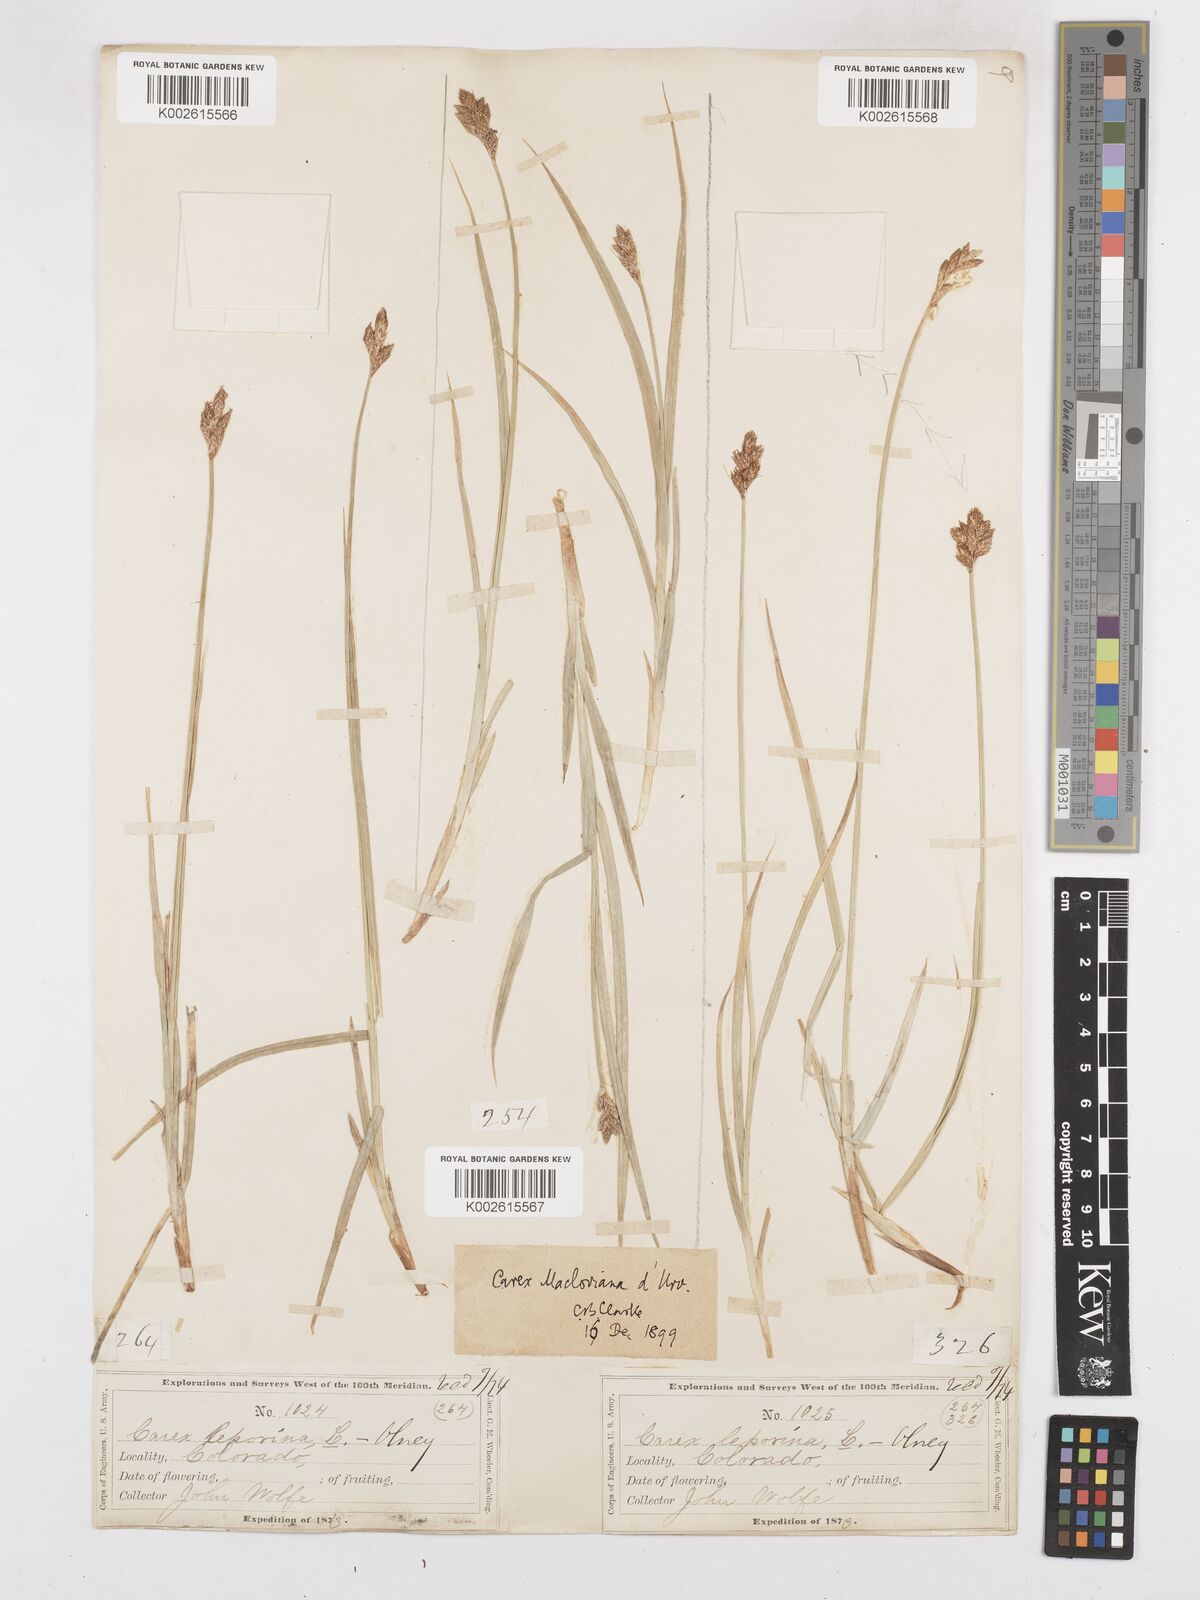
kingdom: Plantae
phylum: Tracheophyta
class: Liliopsida
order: Poales
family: Cyperaceae
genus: Carex
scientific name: Carex macloviana
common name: Falkland island sedge
